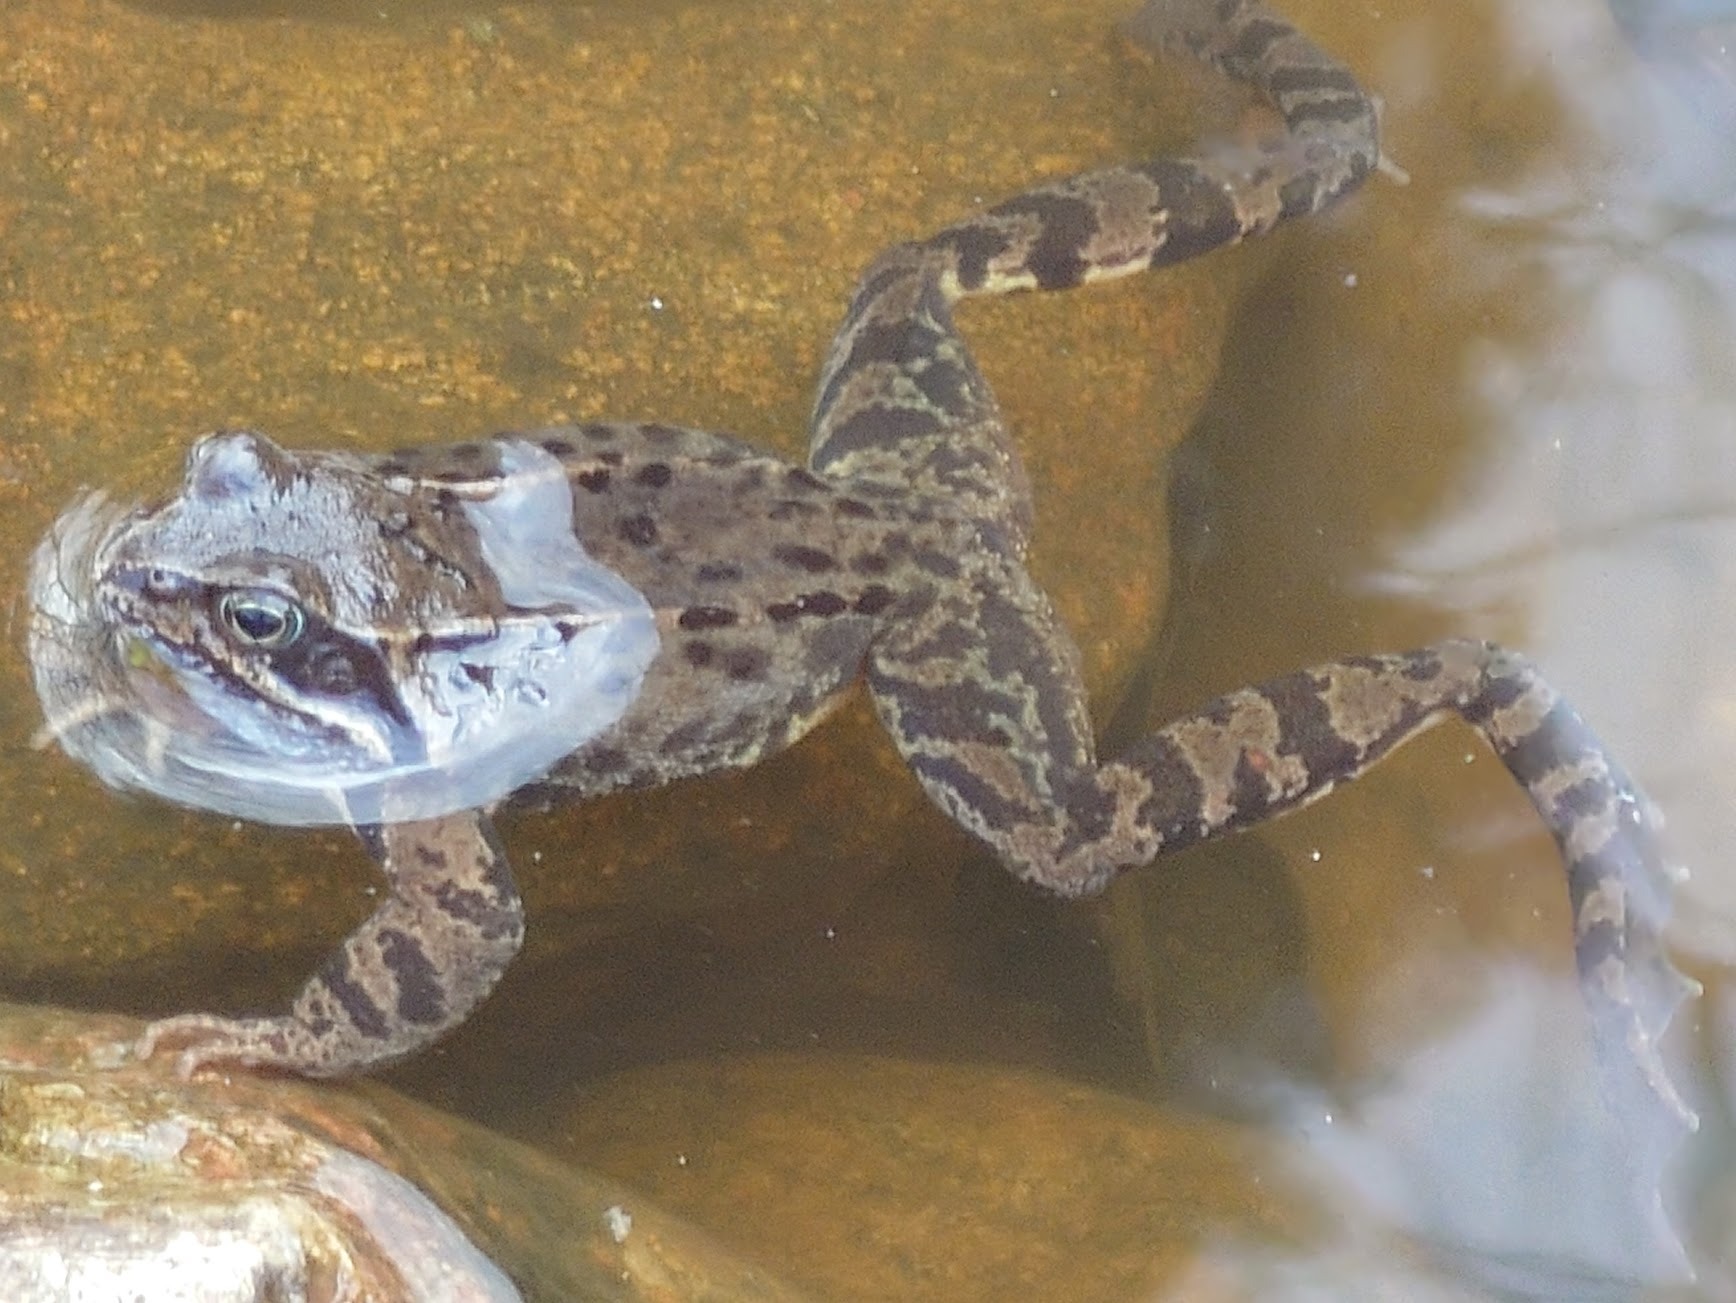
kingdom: Animalia
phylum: Chordata
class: Amphibia
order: Anura
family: Ranidae
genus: Rana
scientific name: Rana temporaria
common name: Butsnudet frø
